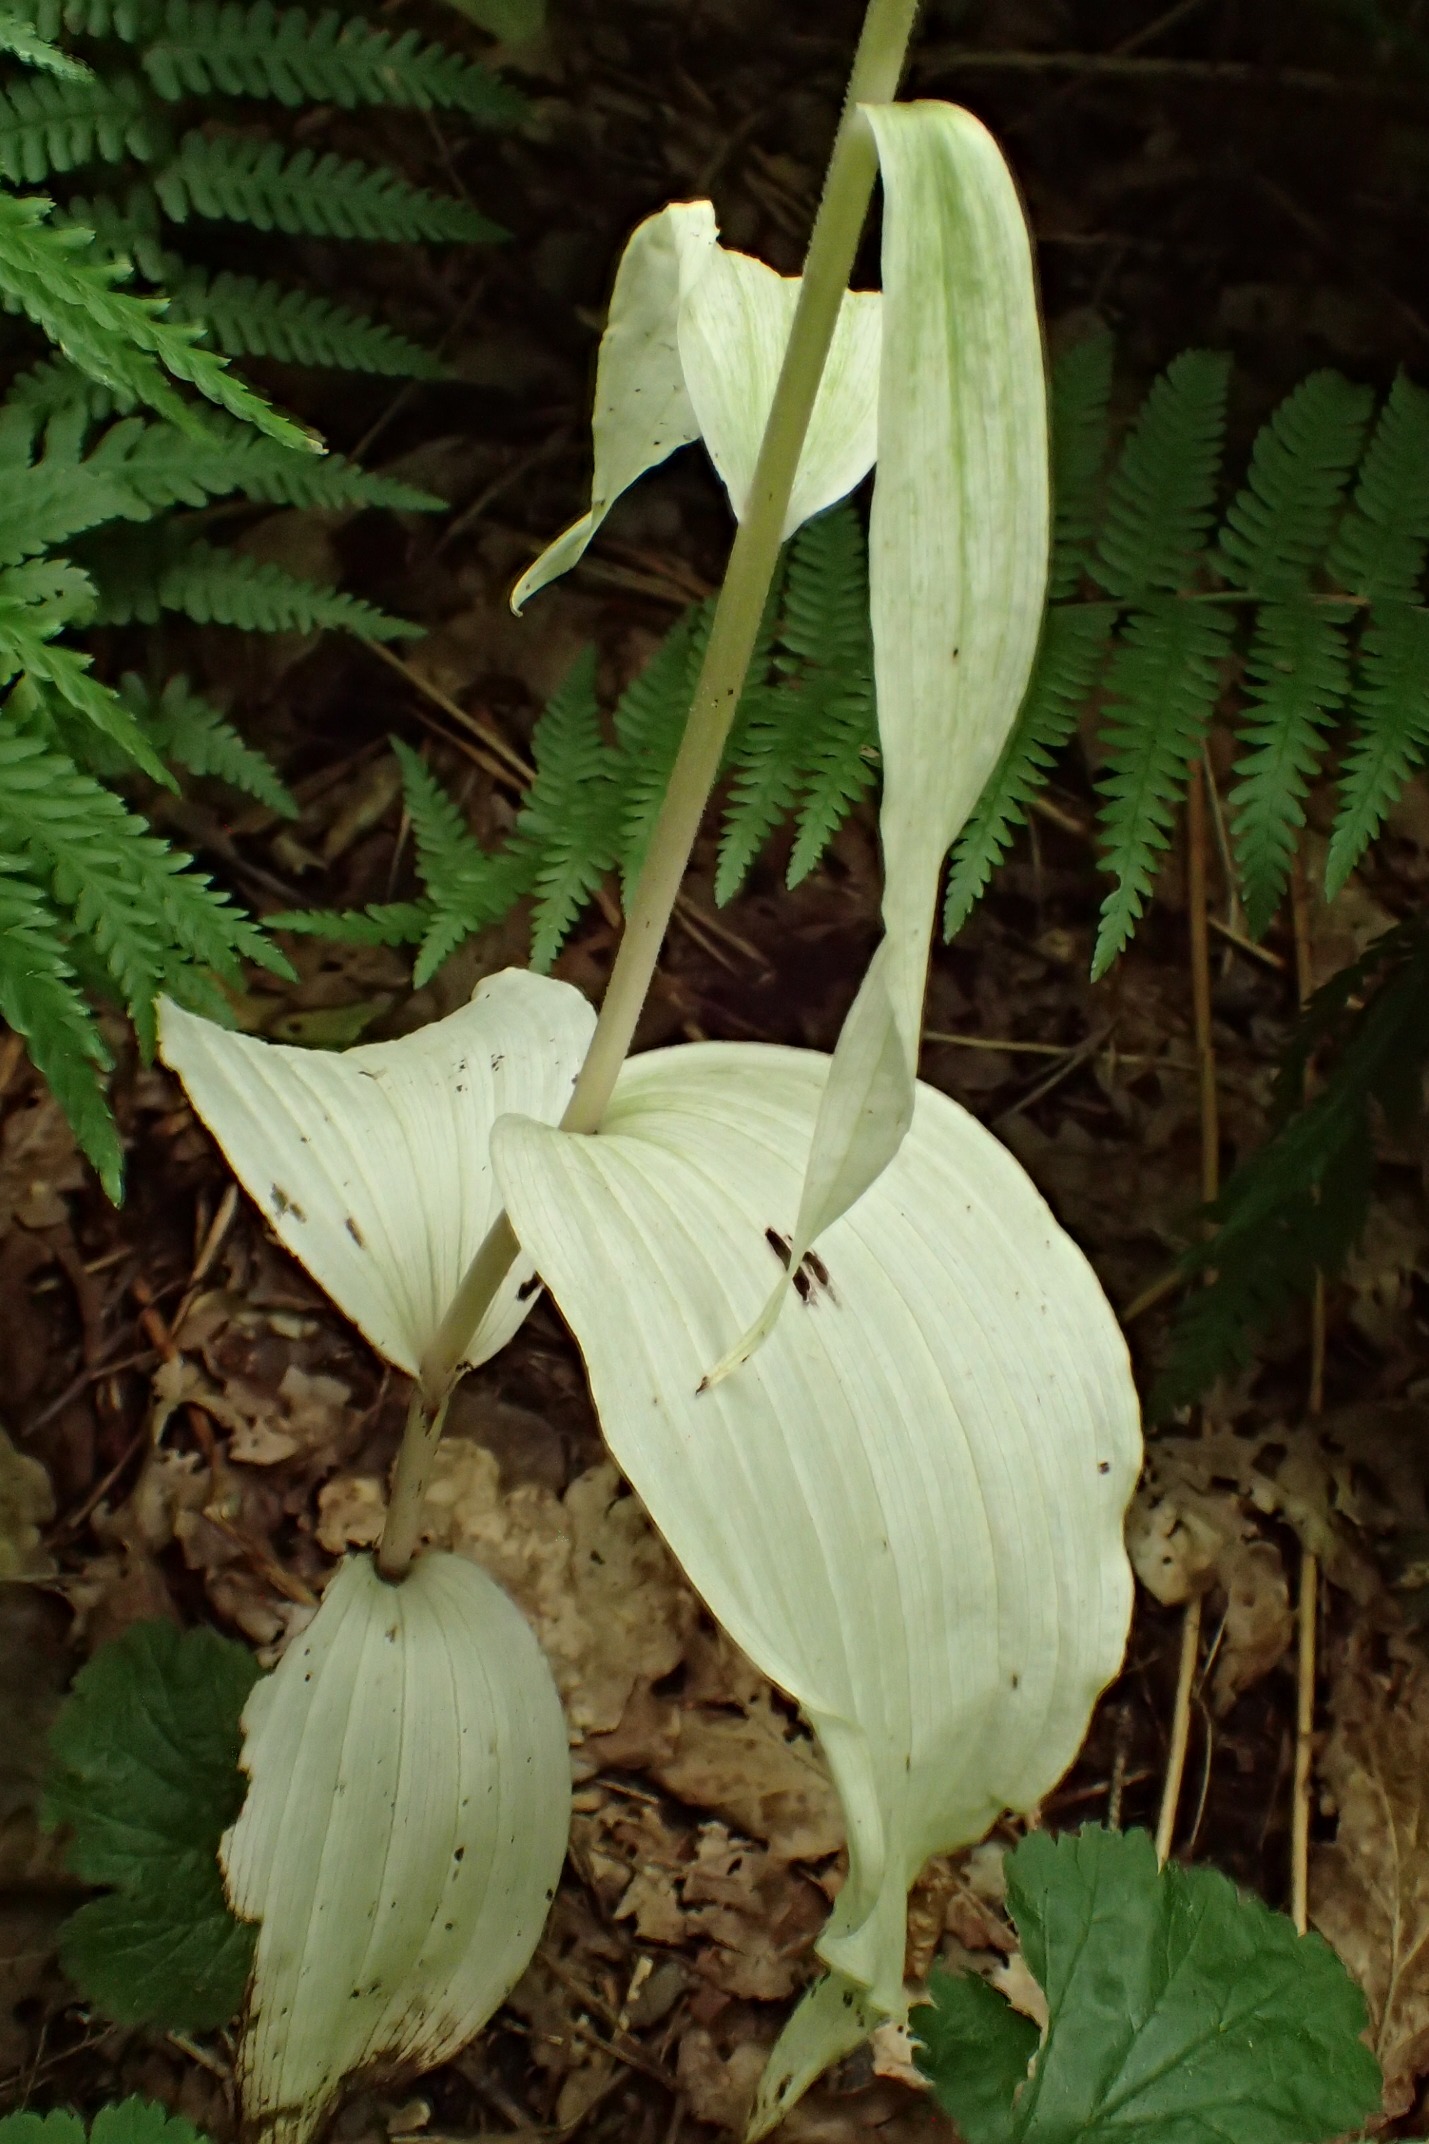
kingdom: Plantae
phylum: Tracheophyta
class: Liliopsida
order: Asparagales
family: Orchidaceae
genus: Epipactis
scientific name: Epipactis helleborine
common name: Skov-hullæbe
